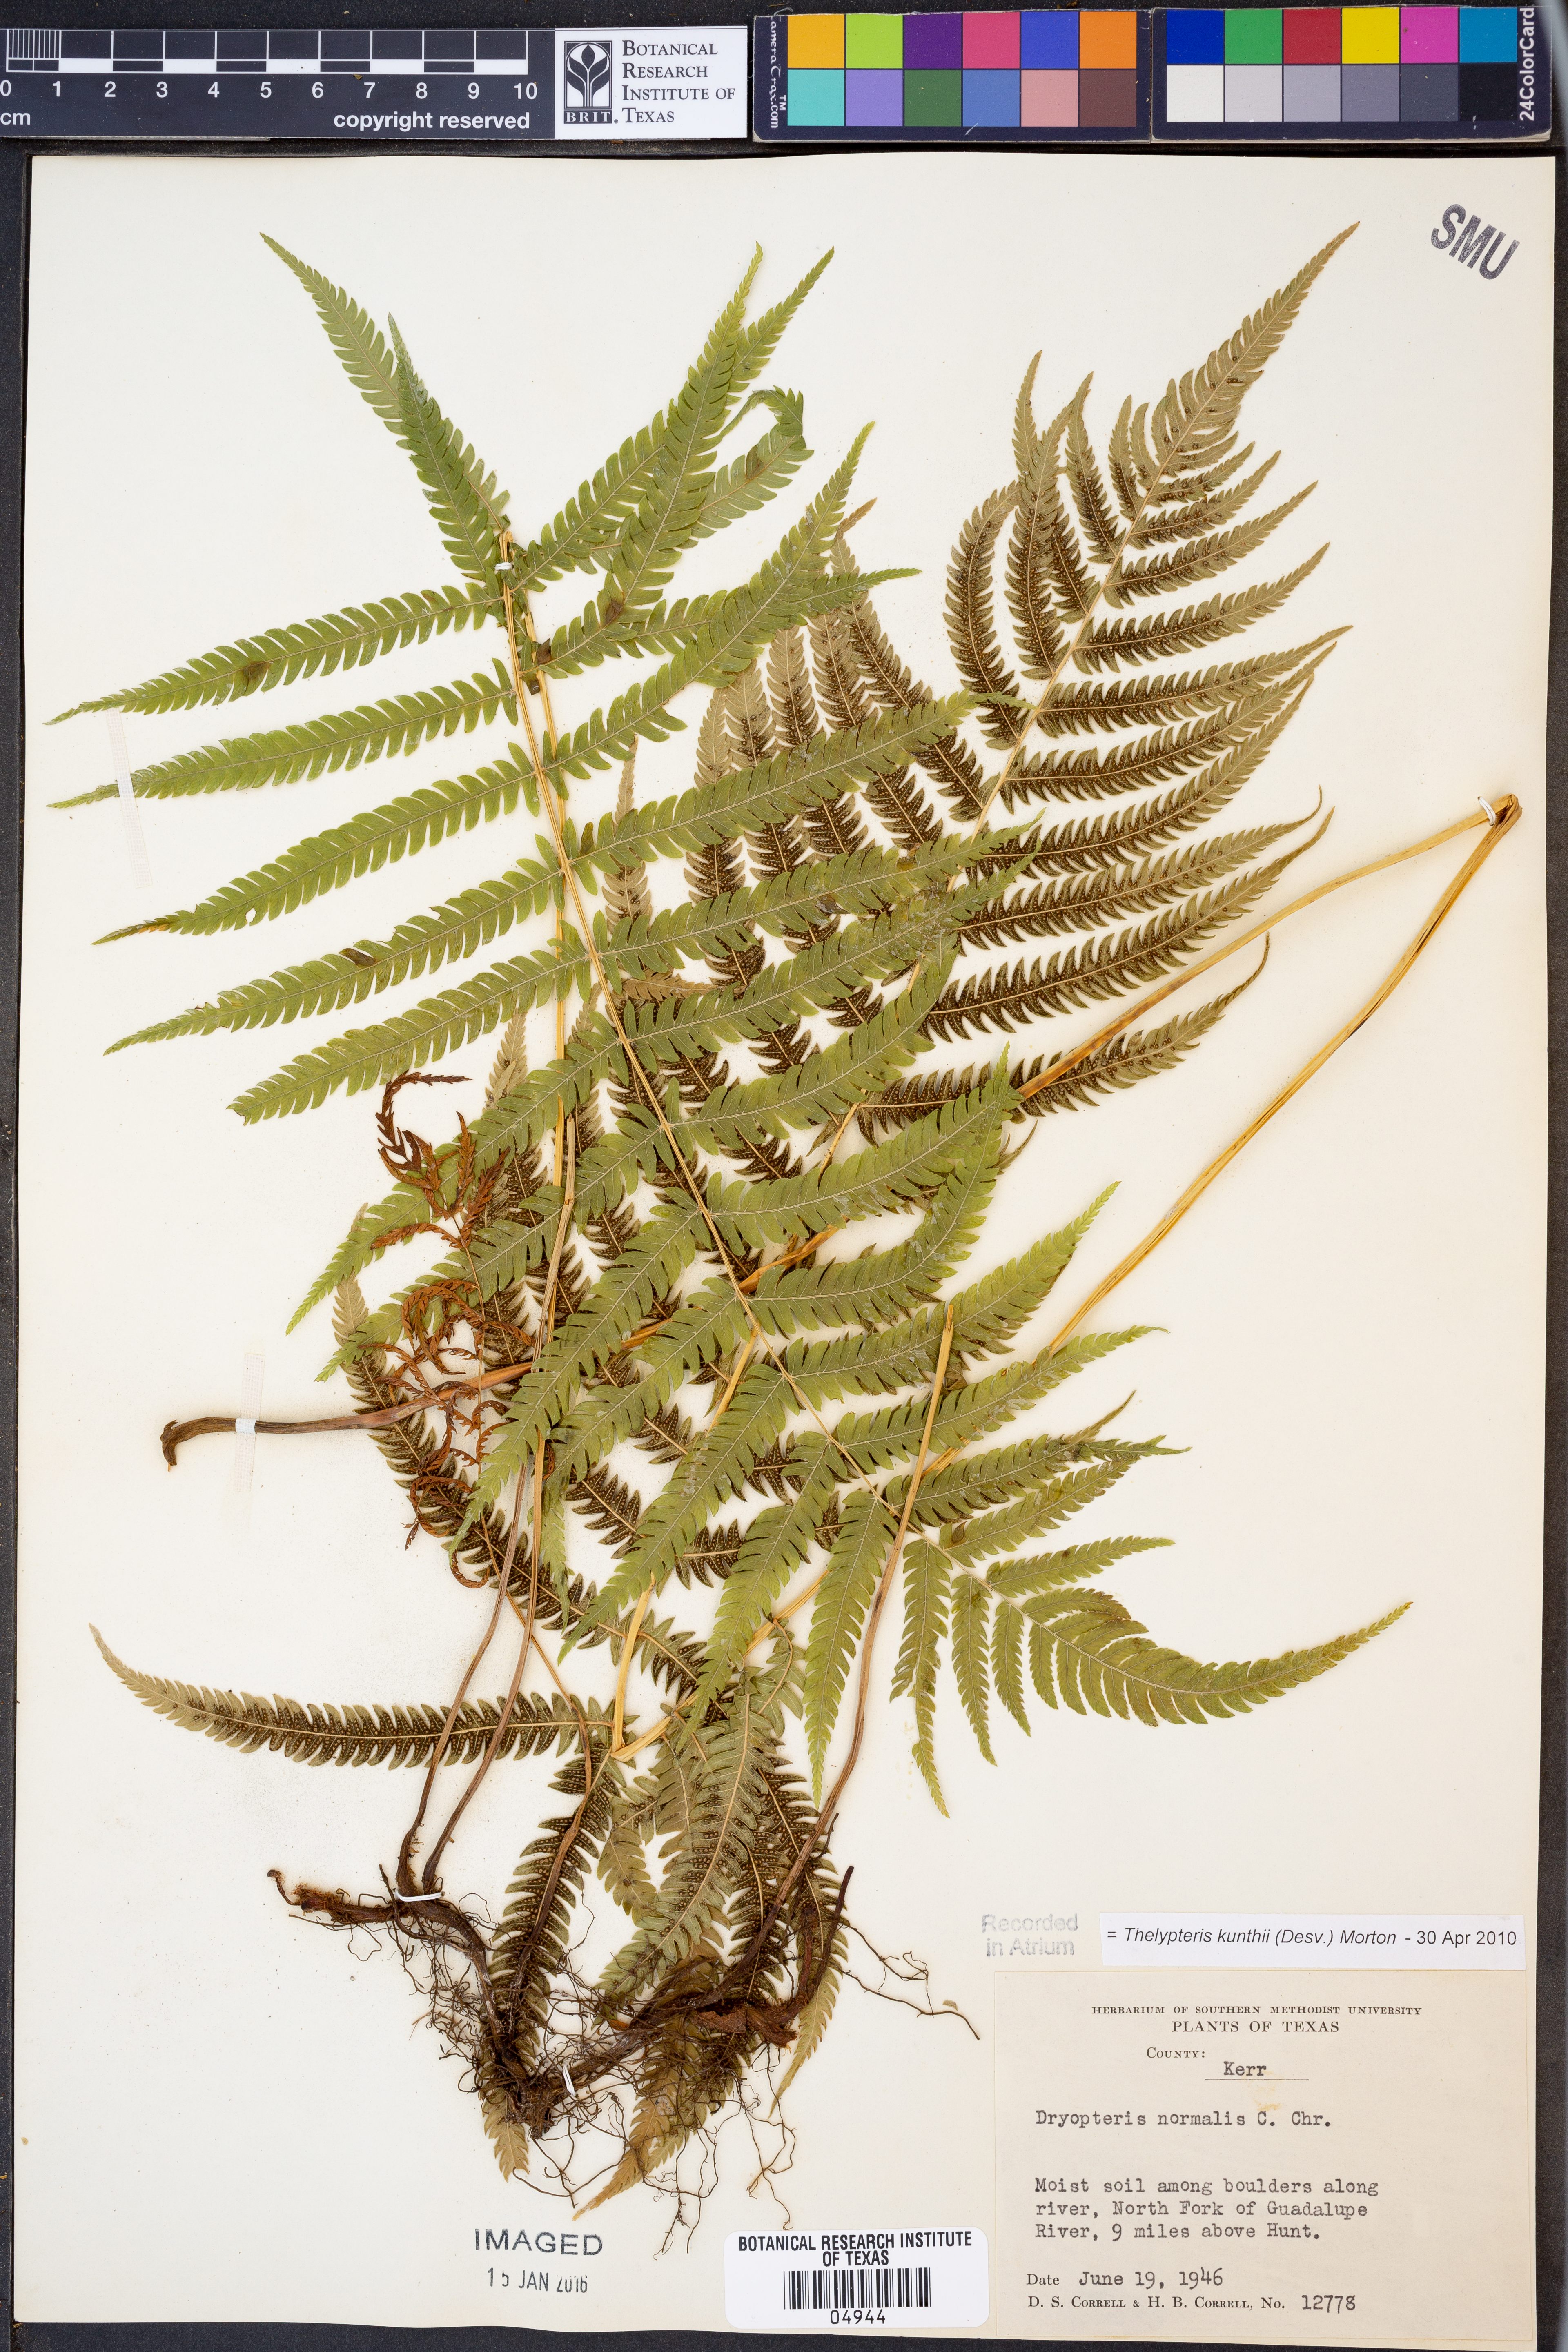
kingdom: Plantae
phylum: Tracheophyta
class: Polypodiopsida
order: Polypodiales
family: Thelypteridaceae
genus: Pelazoneuron
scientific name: Pelazoneuron kunthii
